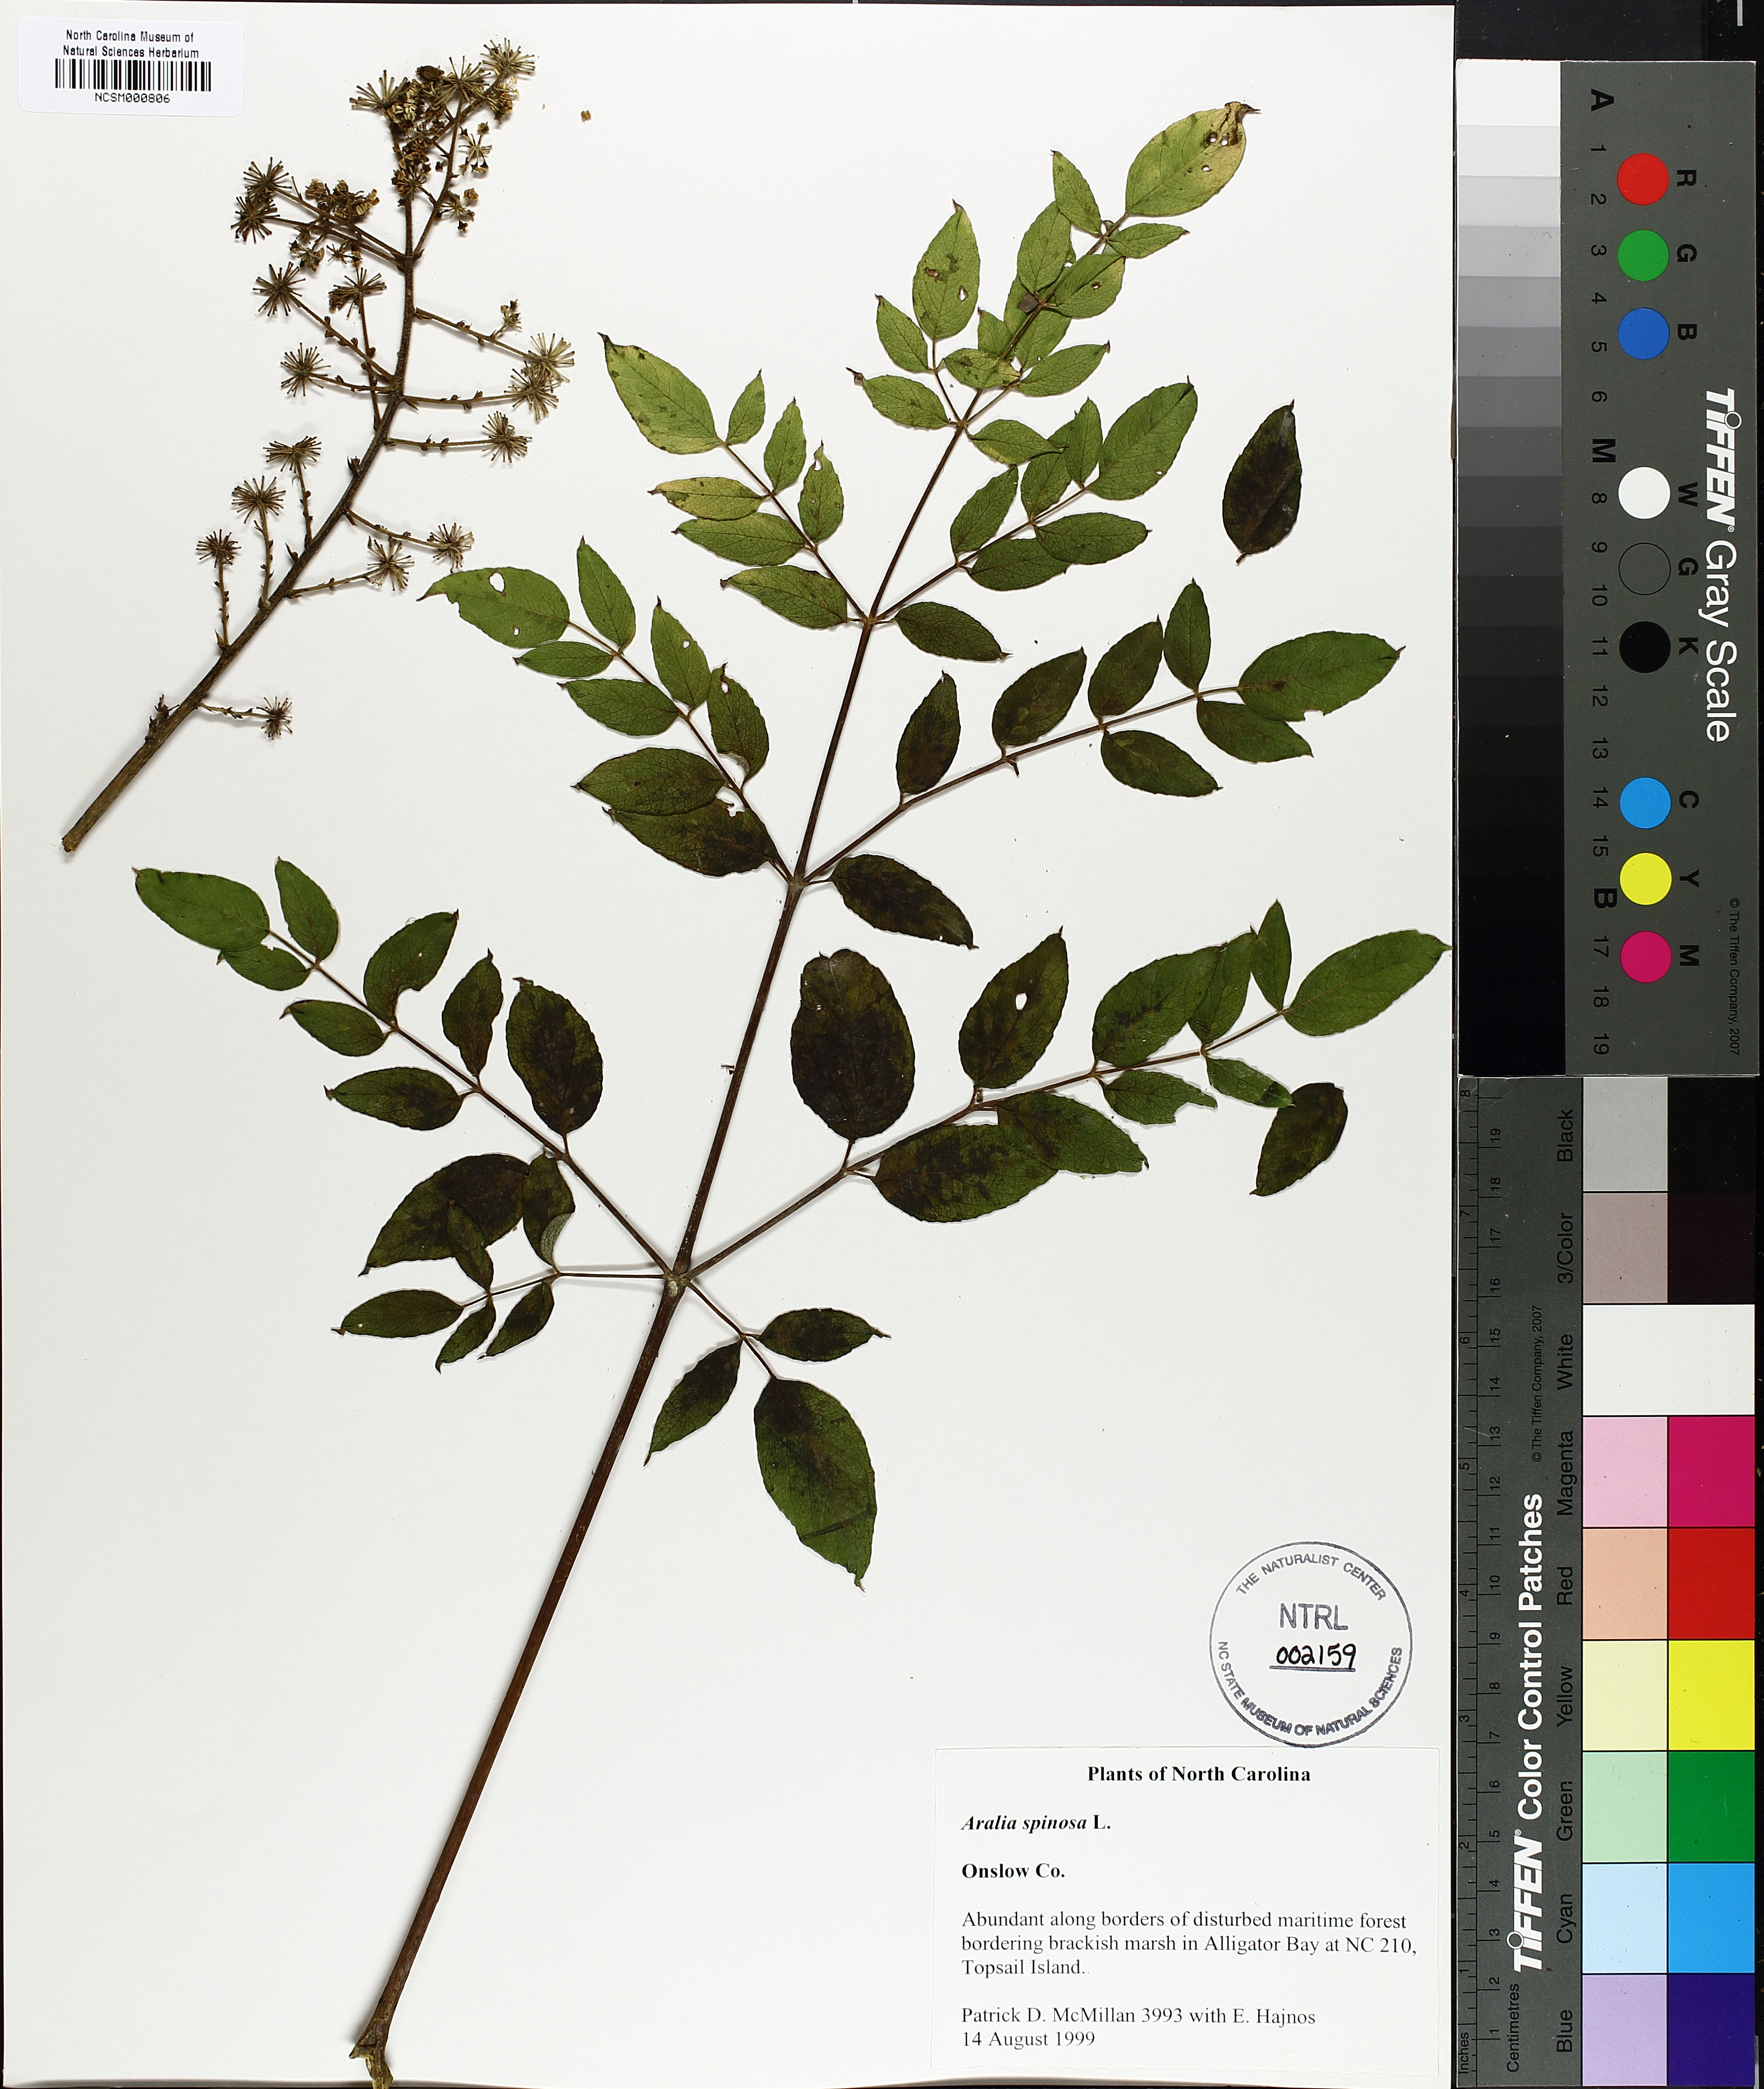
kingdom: Plantae
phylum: Tracheophyta
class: Magnoliopsida
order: Apiales
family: Araliaceae
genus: Aralia
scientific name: Aralia spinosa
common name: Hercules'-club
